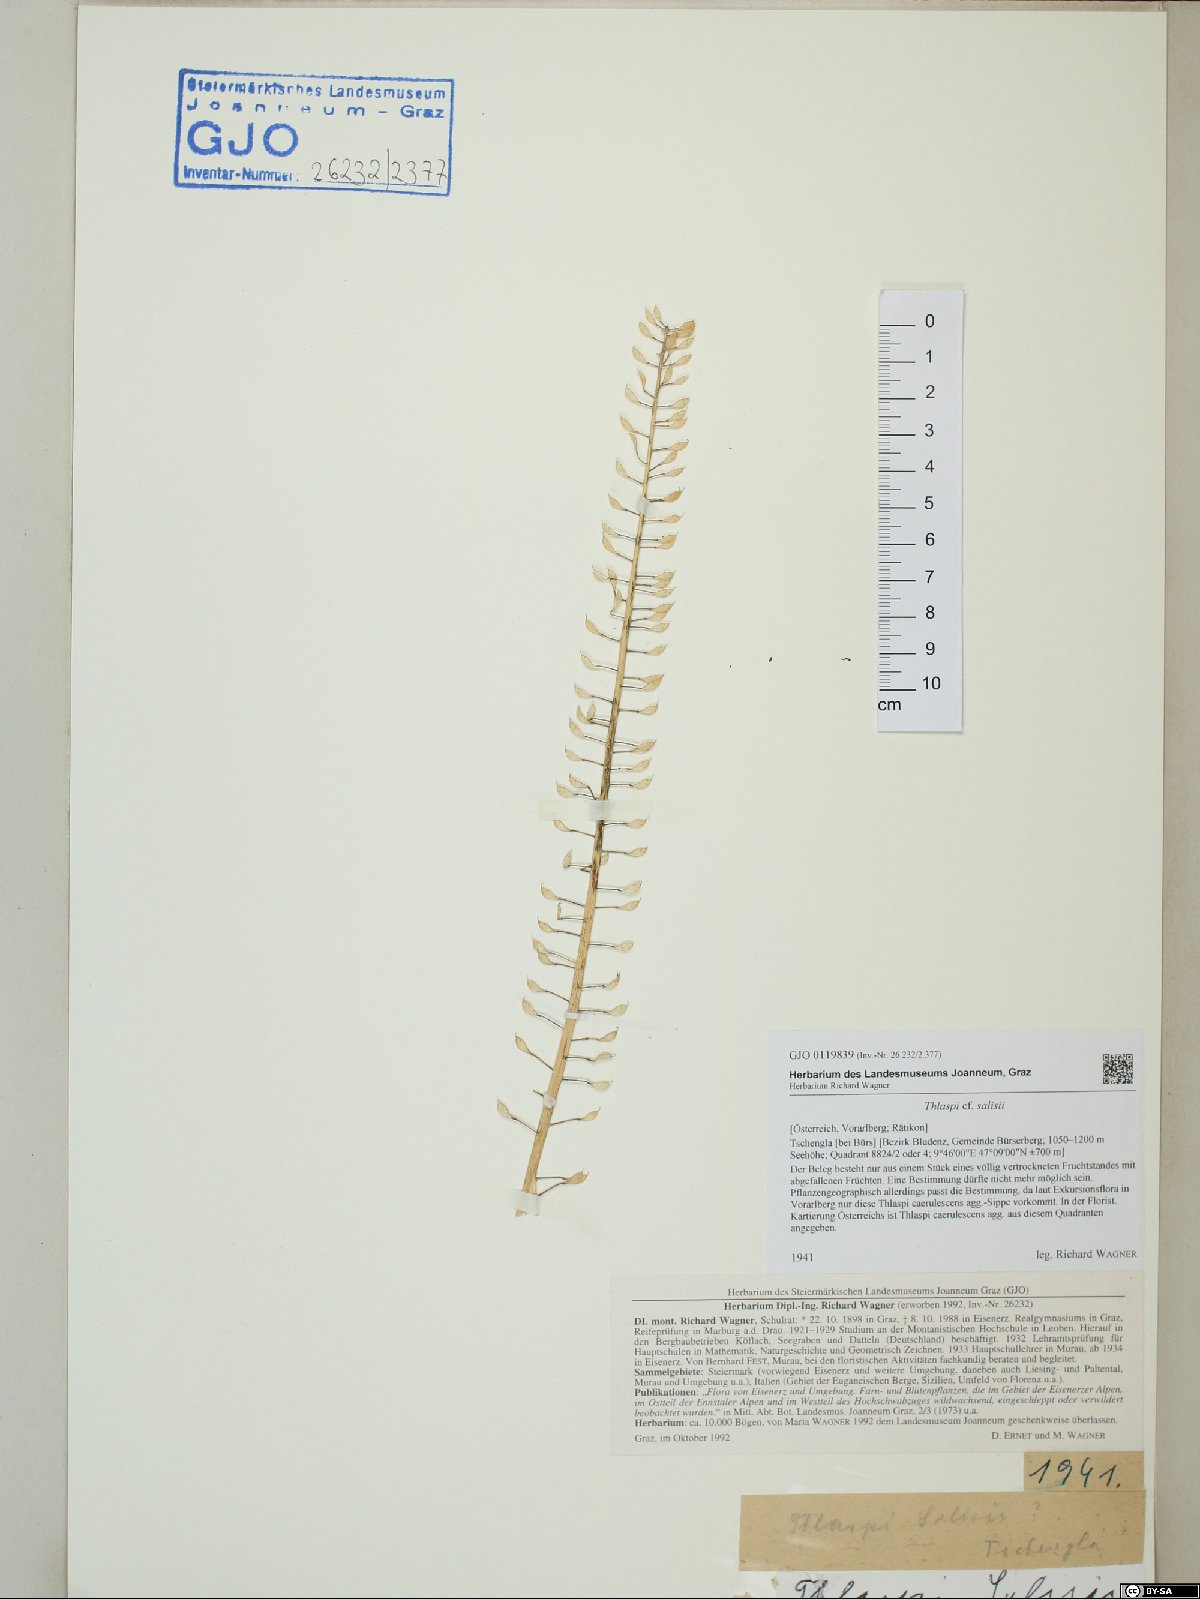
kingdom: Plantae
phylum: Tracheophyta
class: Magnoliopsida
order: Brassicales
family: Brassicaceae
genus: Noccaea
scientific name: Noccaea salisii
